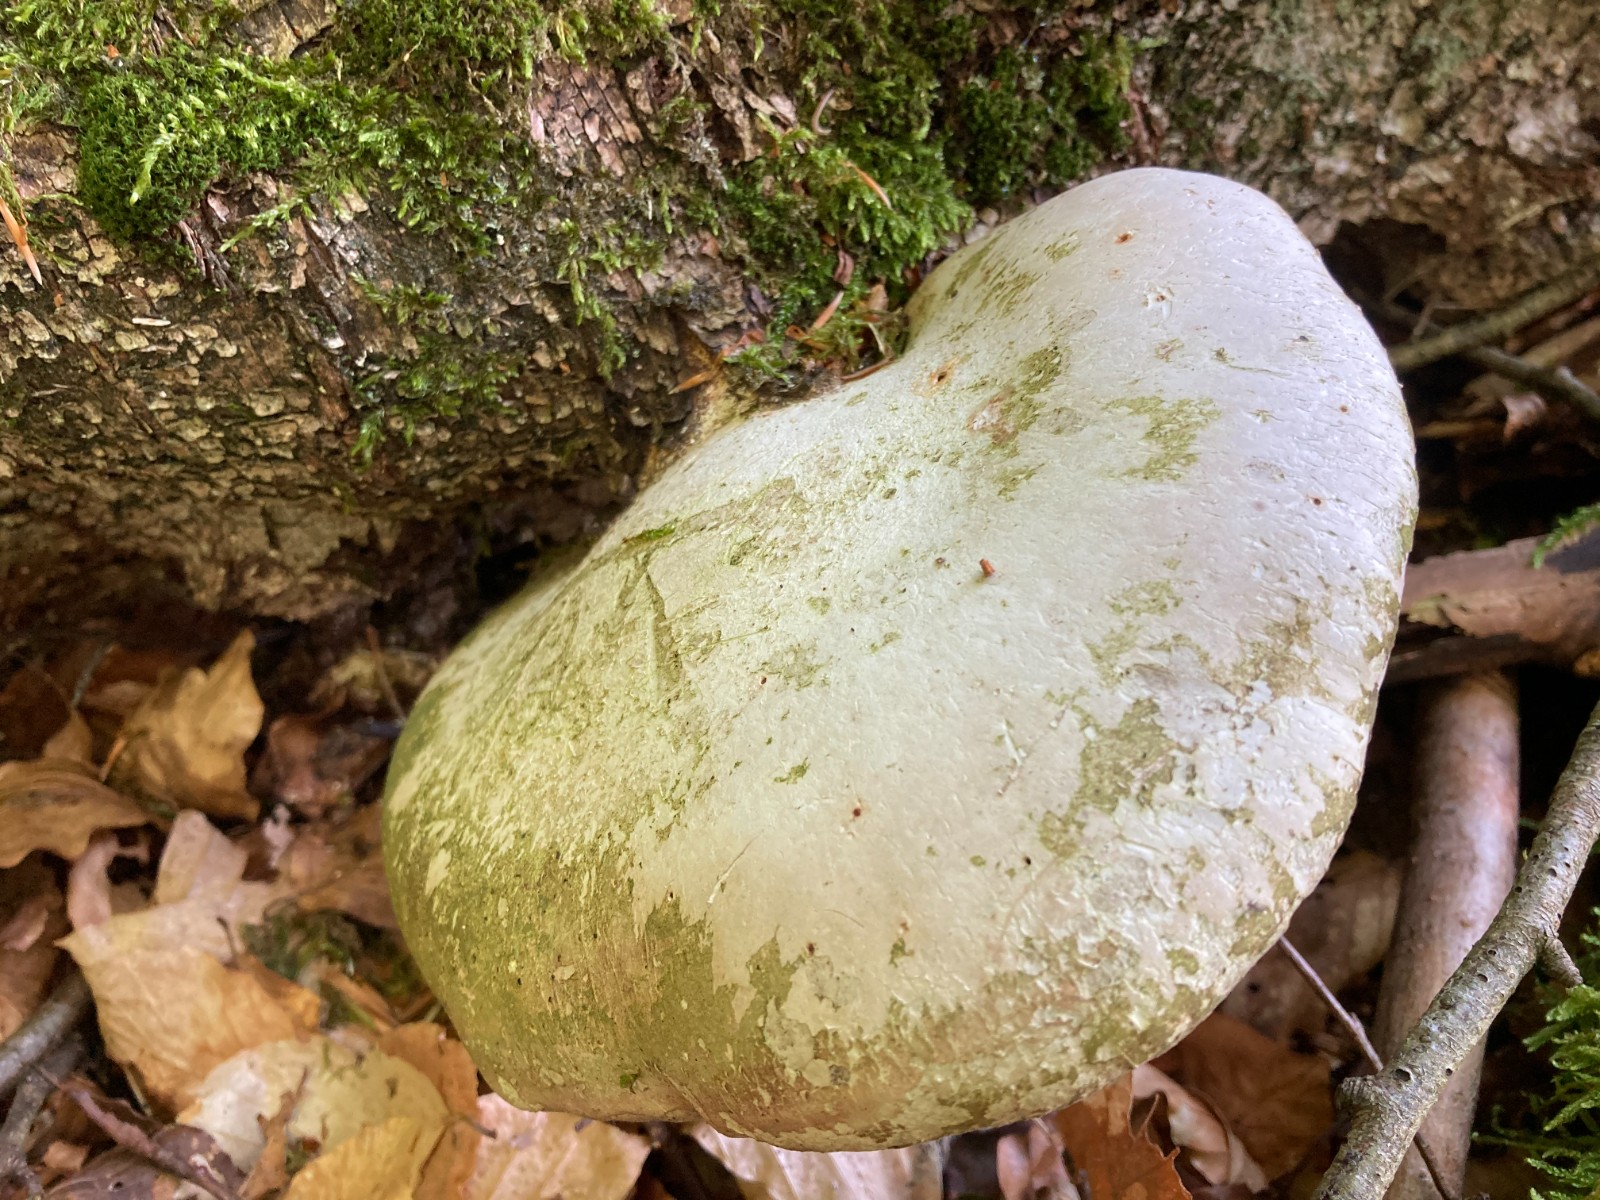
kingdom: Fungi
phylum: Basidiomycota
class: Agaricomycetes
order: Polyporales
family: Fomitopsidaceae
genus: Fomitopsis
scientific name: Fomitopsis betulina
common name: birkeporesvamp
